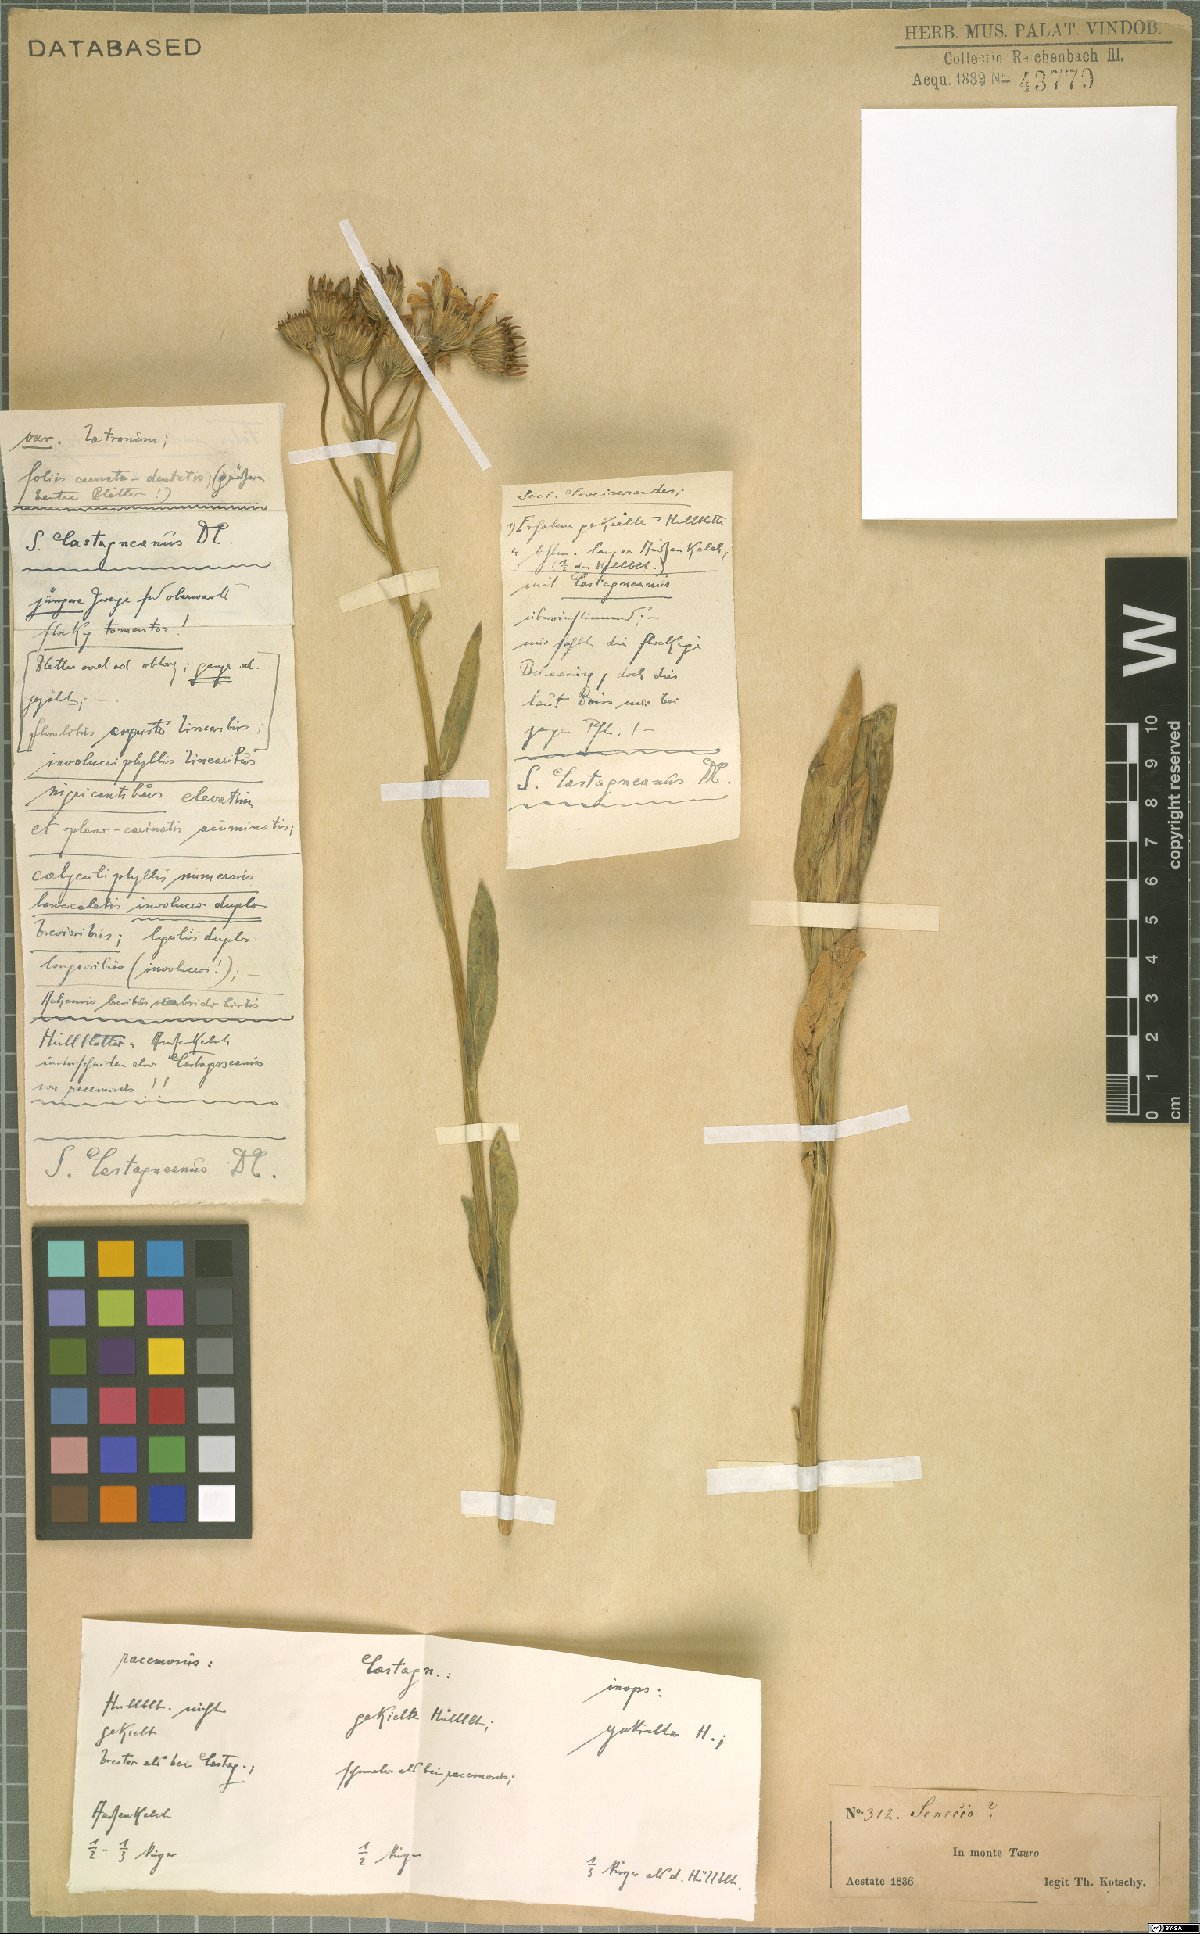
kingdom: Plantae
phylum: Tracheophyta
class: Magnoliopsida
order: Asterales
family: Asteraceae
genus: Senecio
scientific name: Senecio
